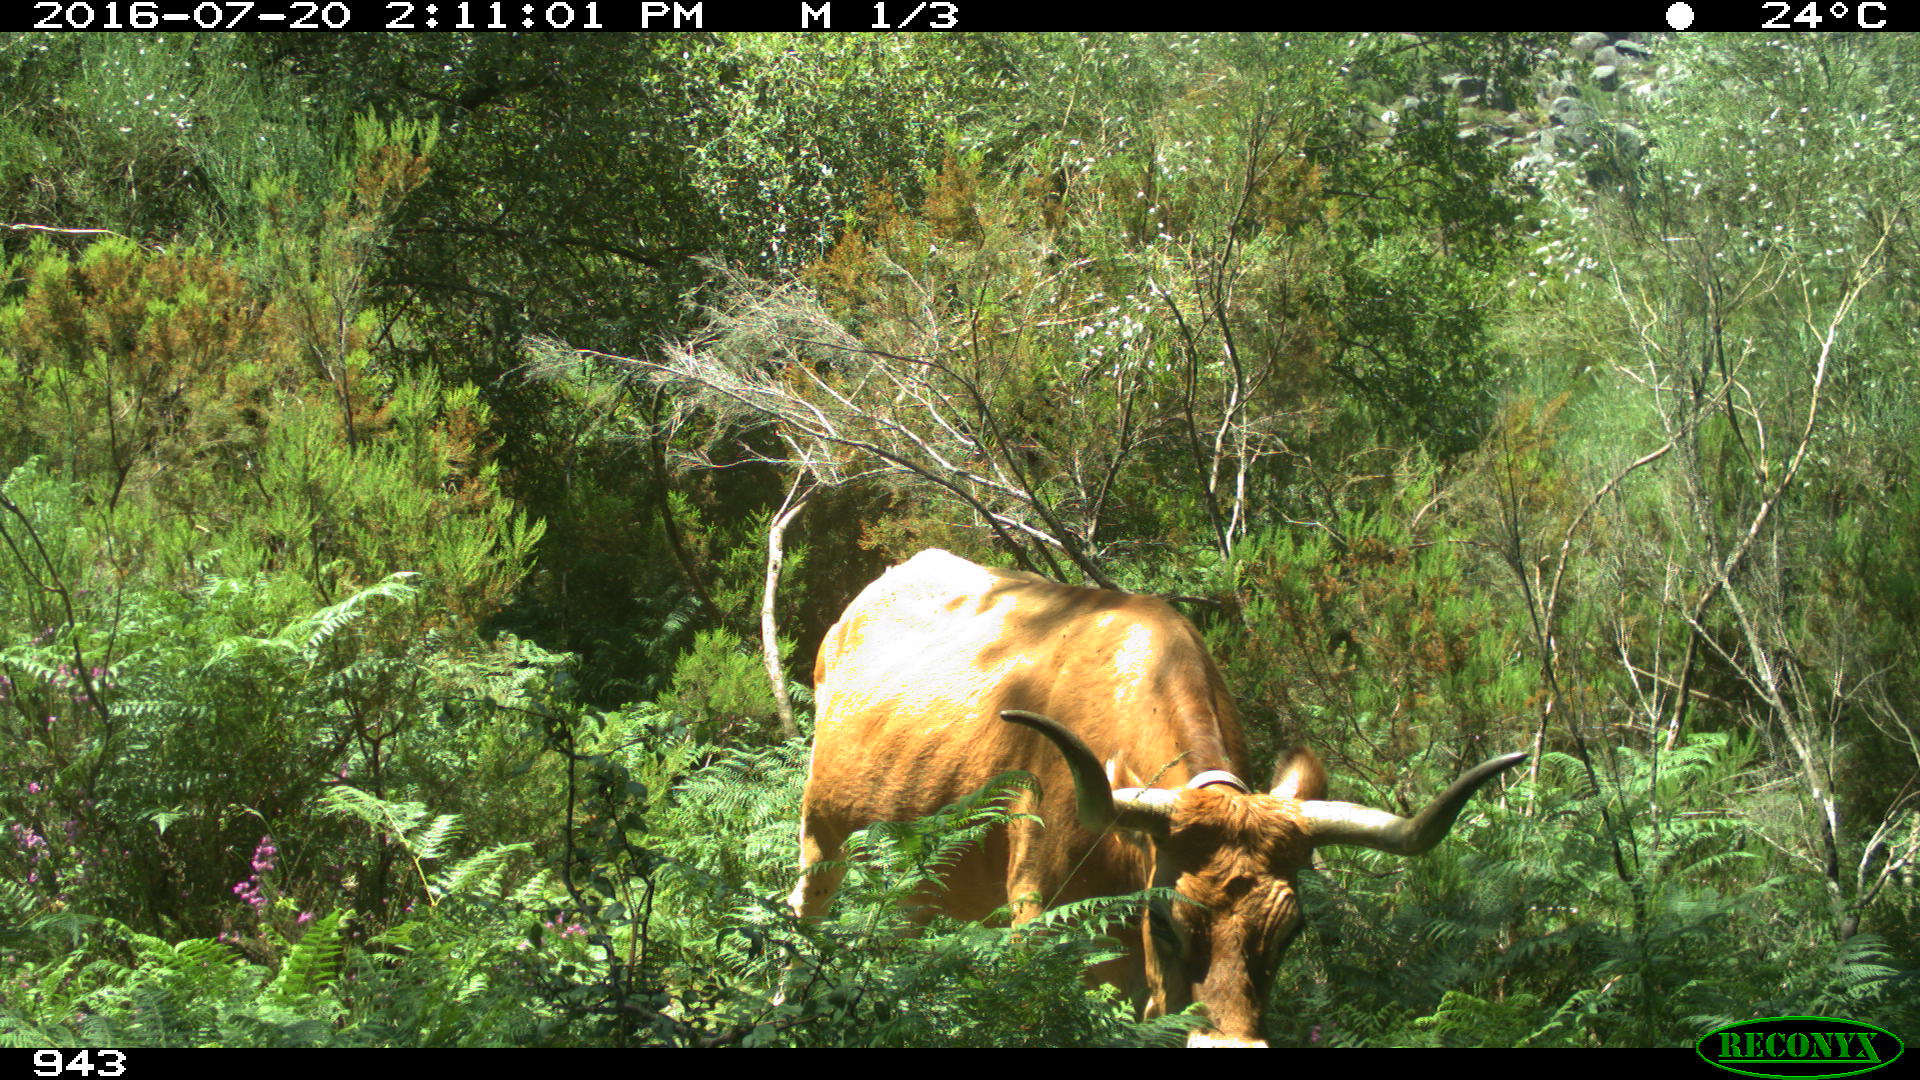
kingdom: Animalia
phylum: Chordata
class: Mammalia
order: Artiodactyla
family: Bovidae
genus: Bos
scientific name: Bos taurus
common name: Domesticated cattle
